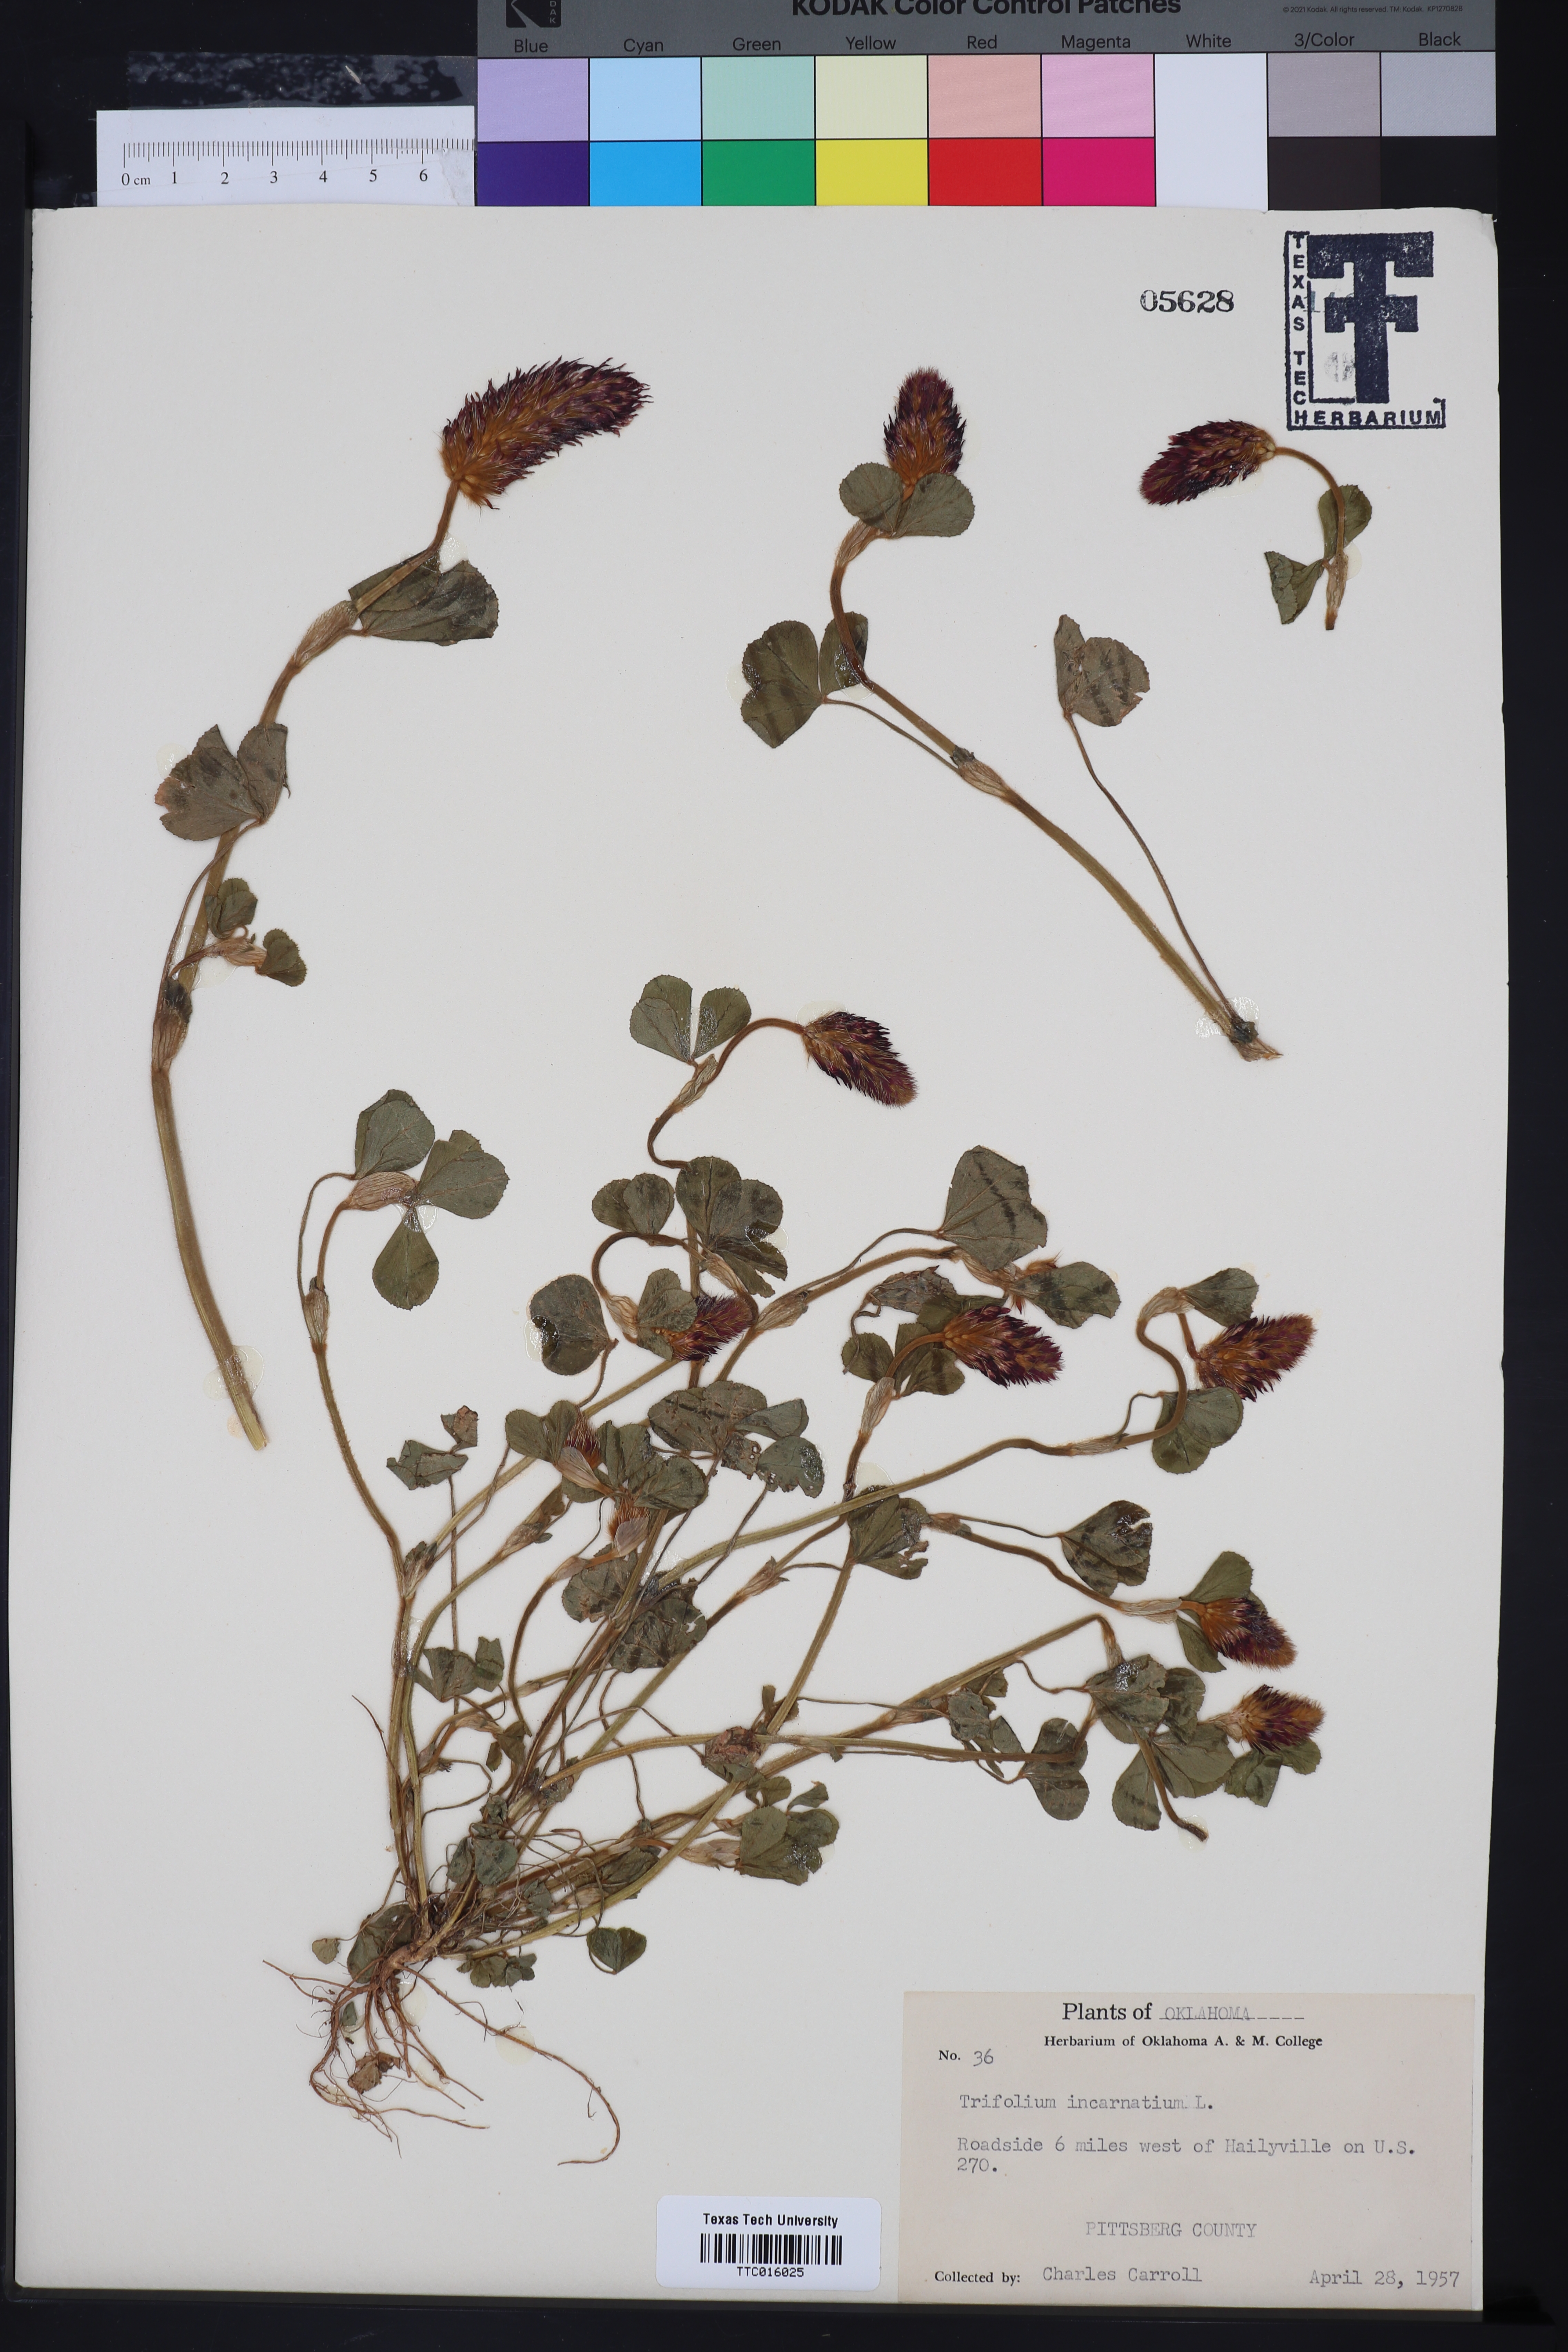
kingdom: Plantae
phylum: Tracheophyta
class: Magnoliopsida
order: Fabales
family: Fabaceae
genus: Trifolium
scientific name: Trifolium incarnatum
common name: Crimson clover
